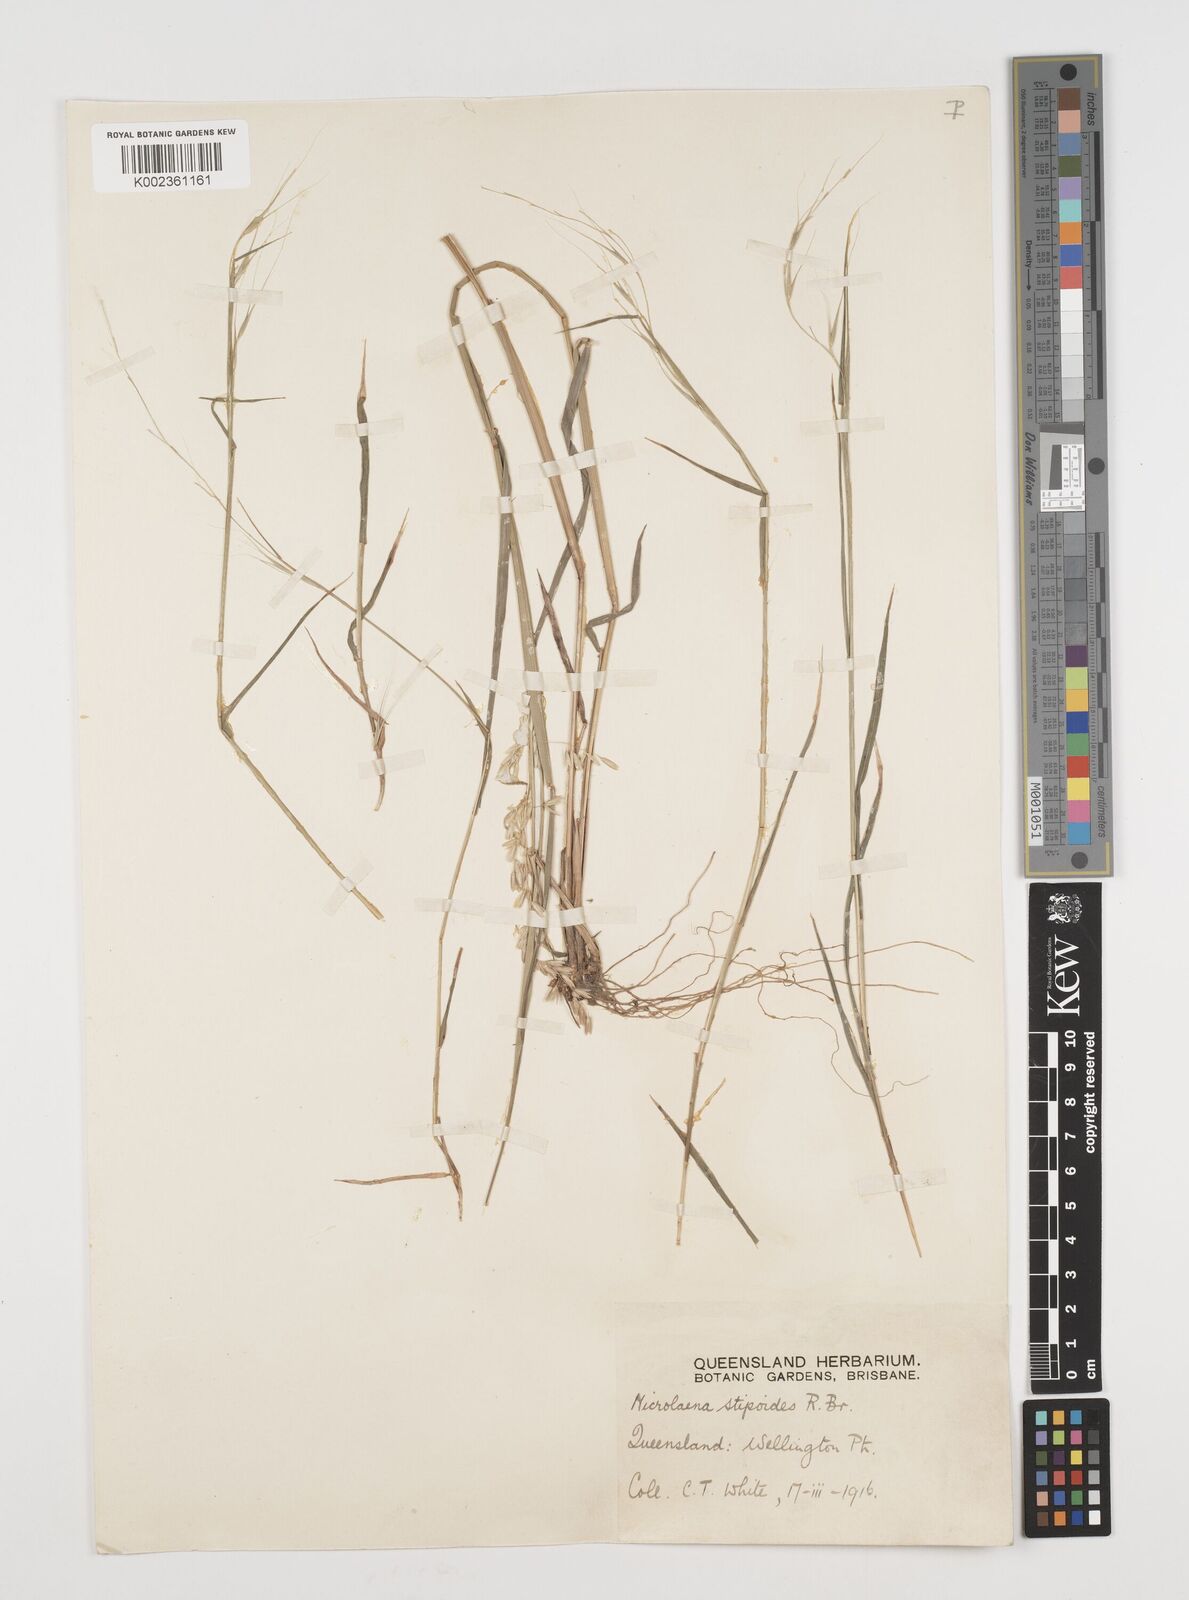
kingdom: Plantae
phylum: Tracheophyta
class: Liliopsida
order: Poales
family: Poaceae
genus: Microlaena
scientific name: Microlaena stipoides
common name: Meadow ricegrass
